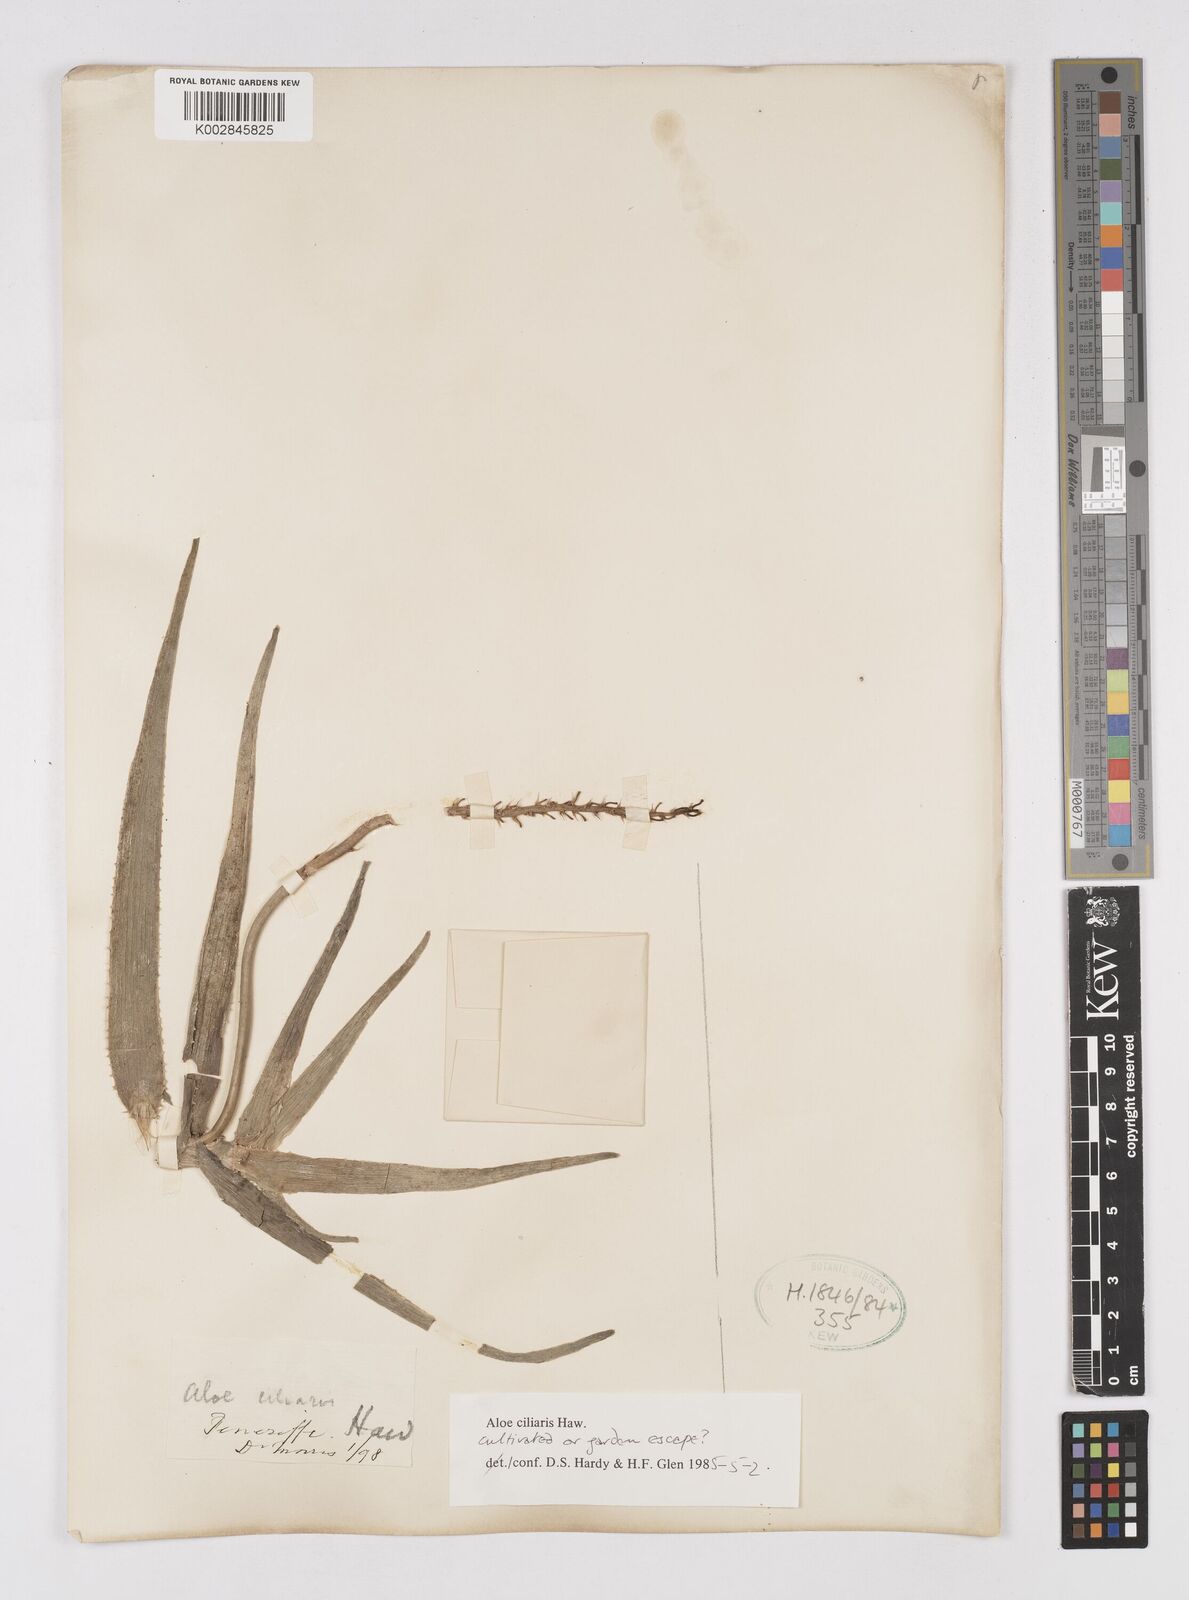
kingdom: Plantae
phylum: Tracheophyta
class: Liliopsida
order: Asparagales
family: Asphodelaceae
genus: Aloiampelos
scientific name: Aloiampelos ciliaris
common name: Climbing aloe
